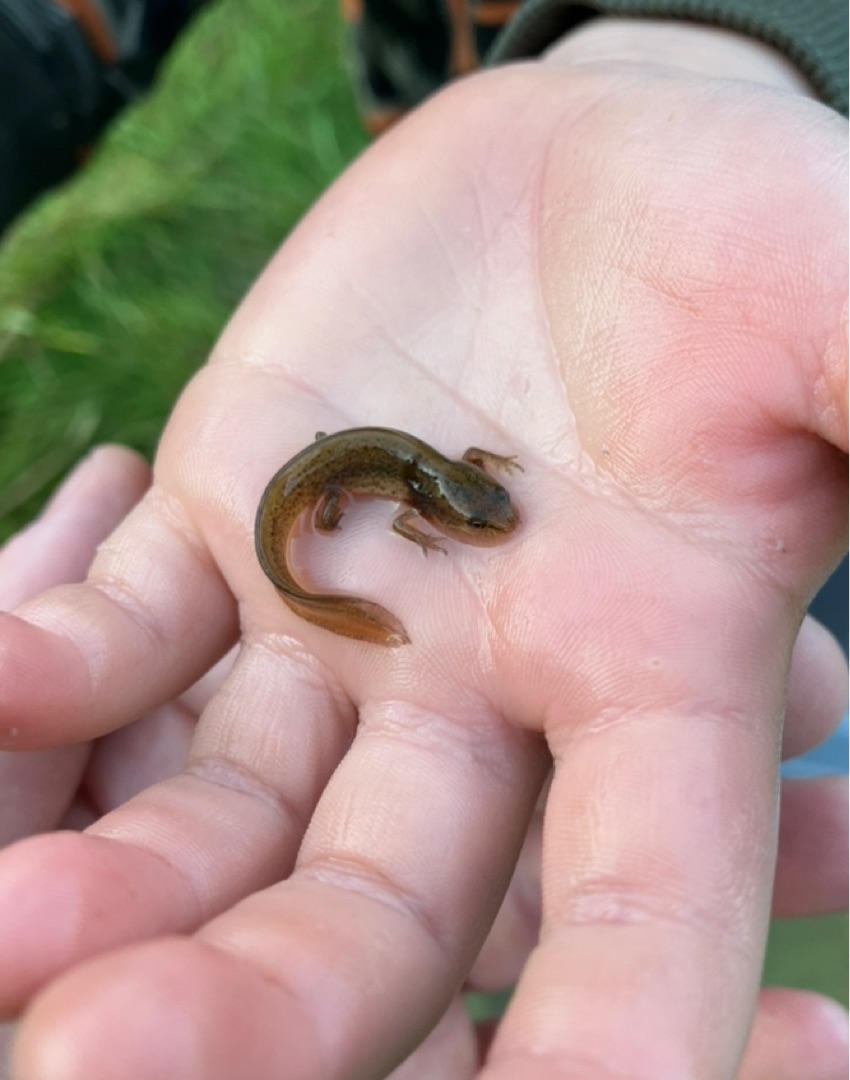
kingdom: Animalia
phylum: Chordata
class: Amphibia
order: Caudata
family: Salamandridae
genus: Lissotriton
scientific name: Lissotriton vulgaris
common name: Lille vandsalamander
